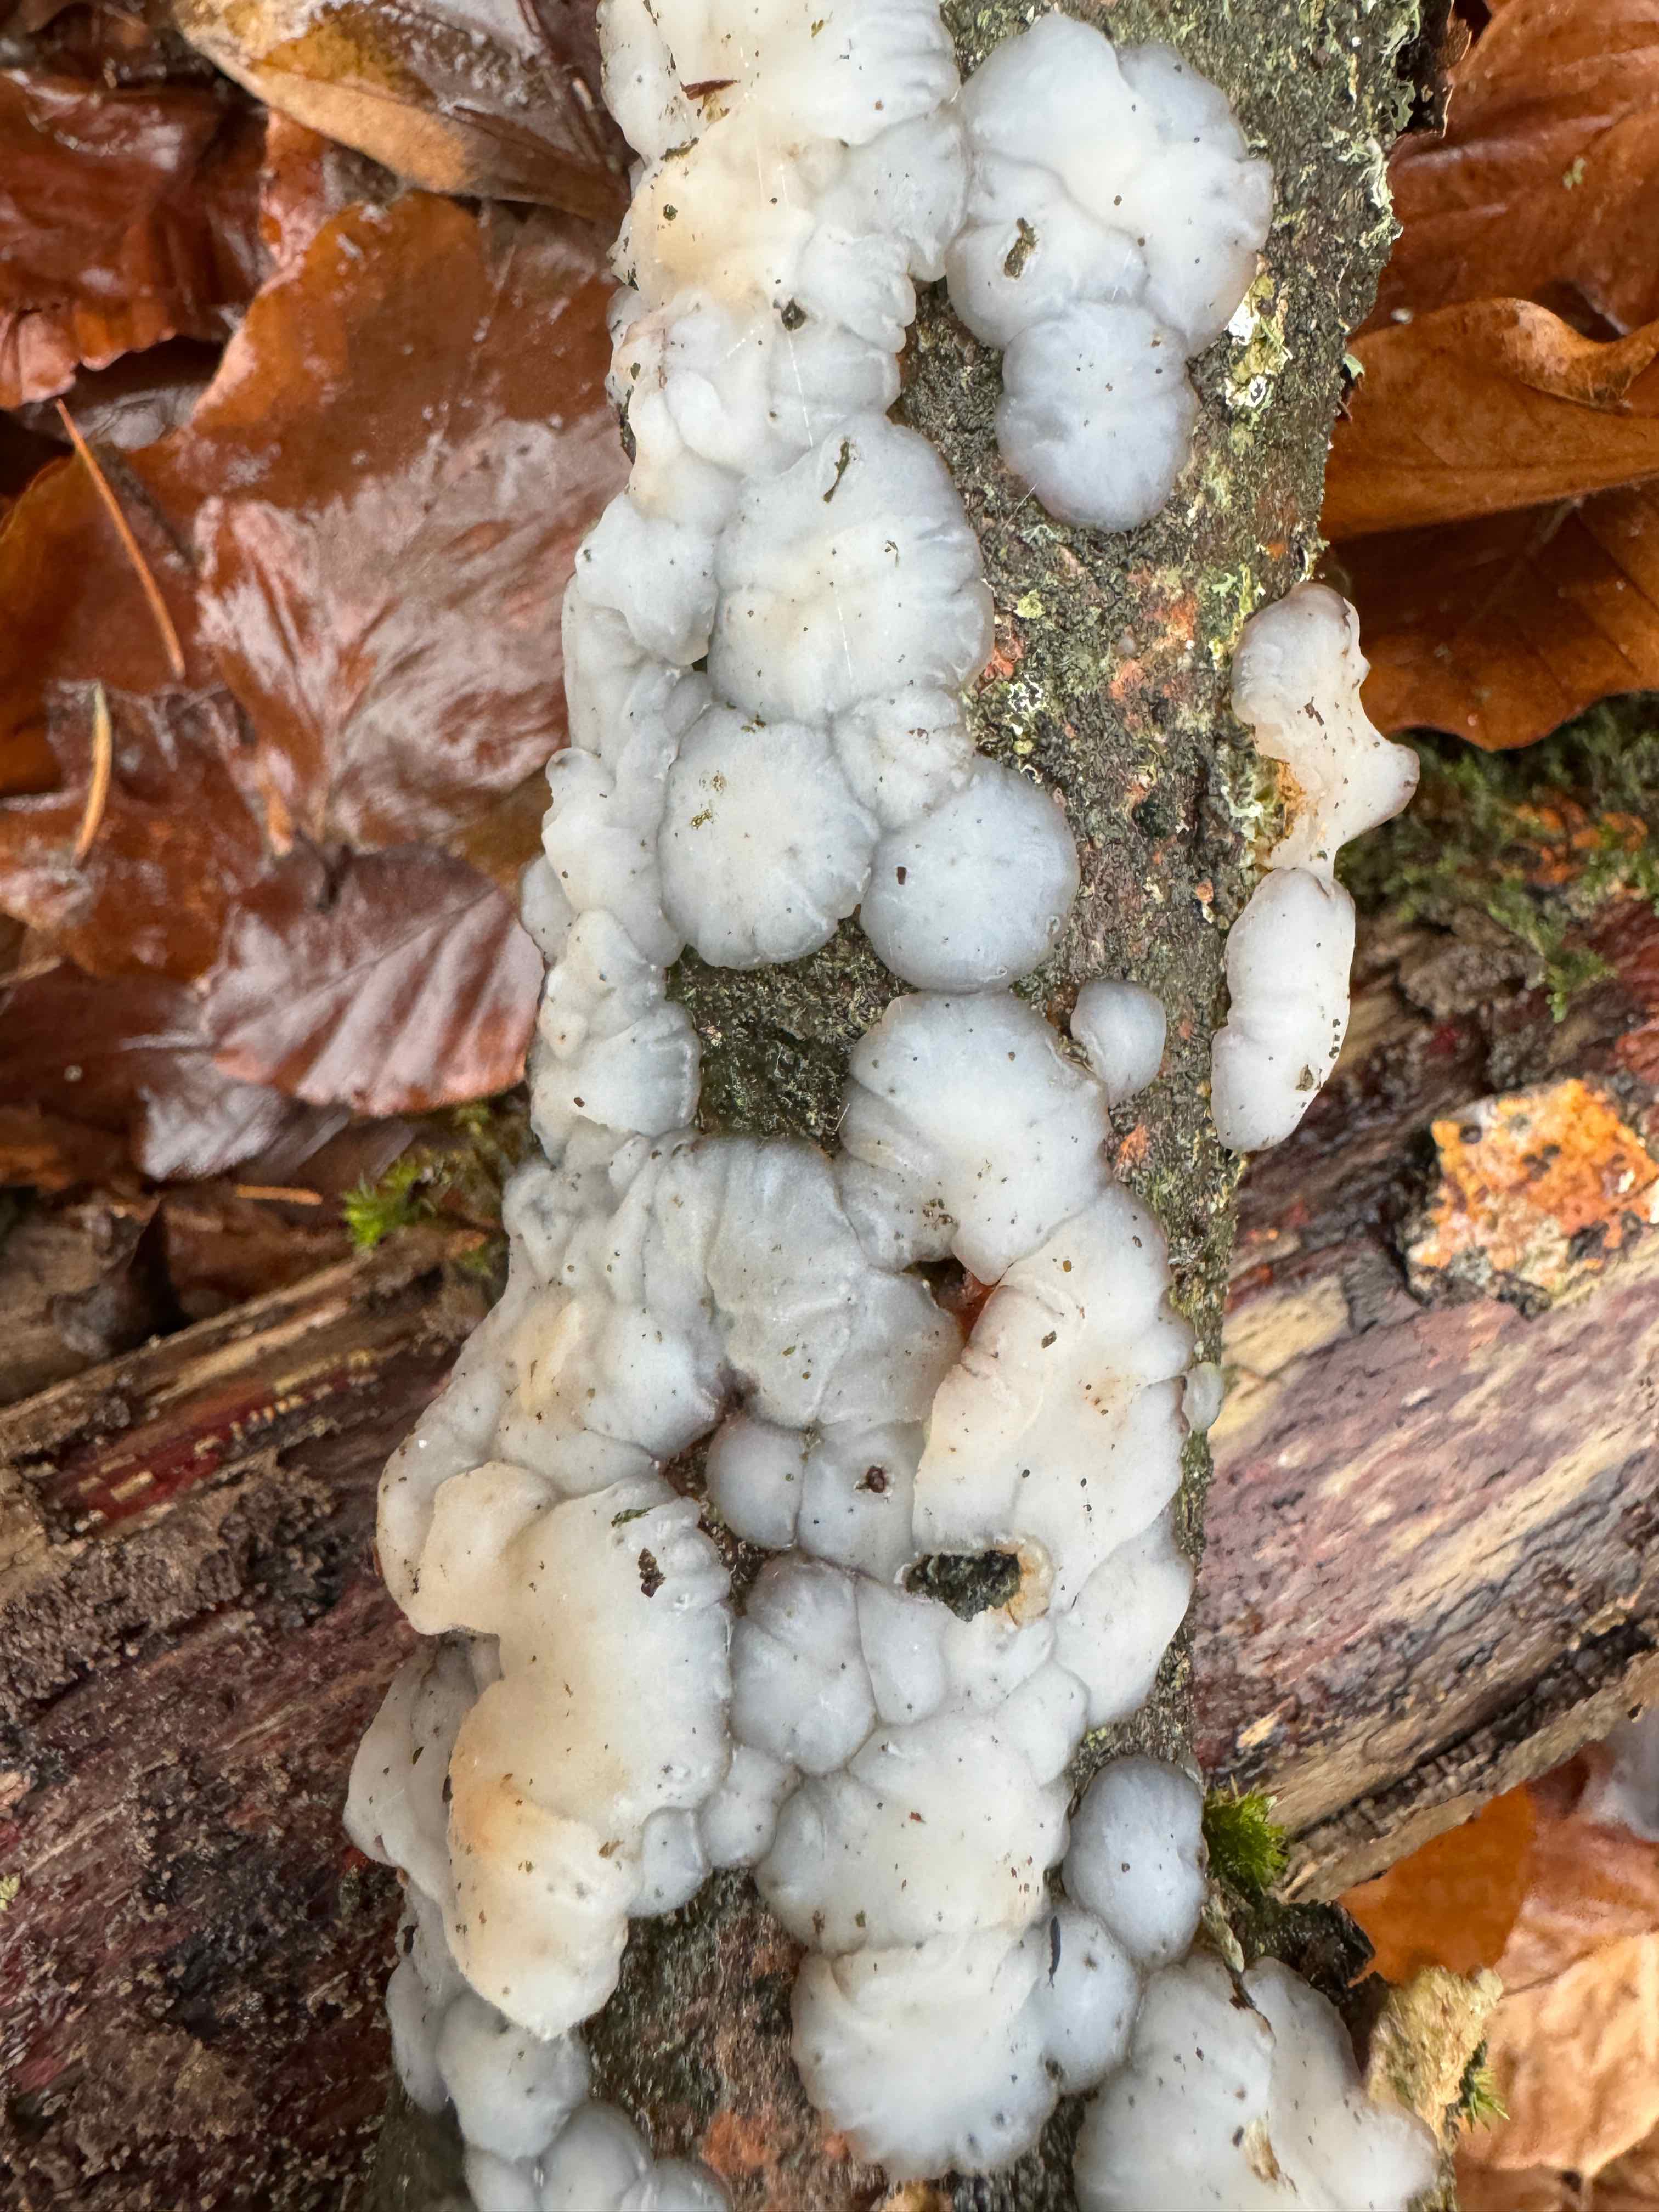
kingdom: Fungi
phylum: Basidiomycota
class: Agaricomycetes
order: Auriculariales
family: Auriculariaceae
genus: Exidia
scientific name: Exidia thuretiana
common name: hvidlig bævretop
